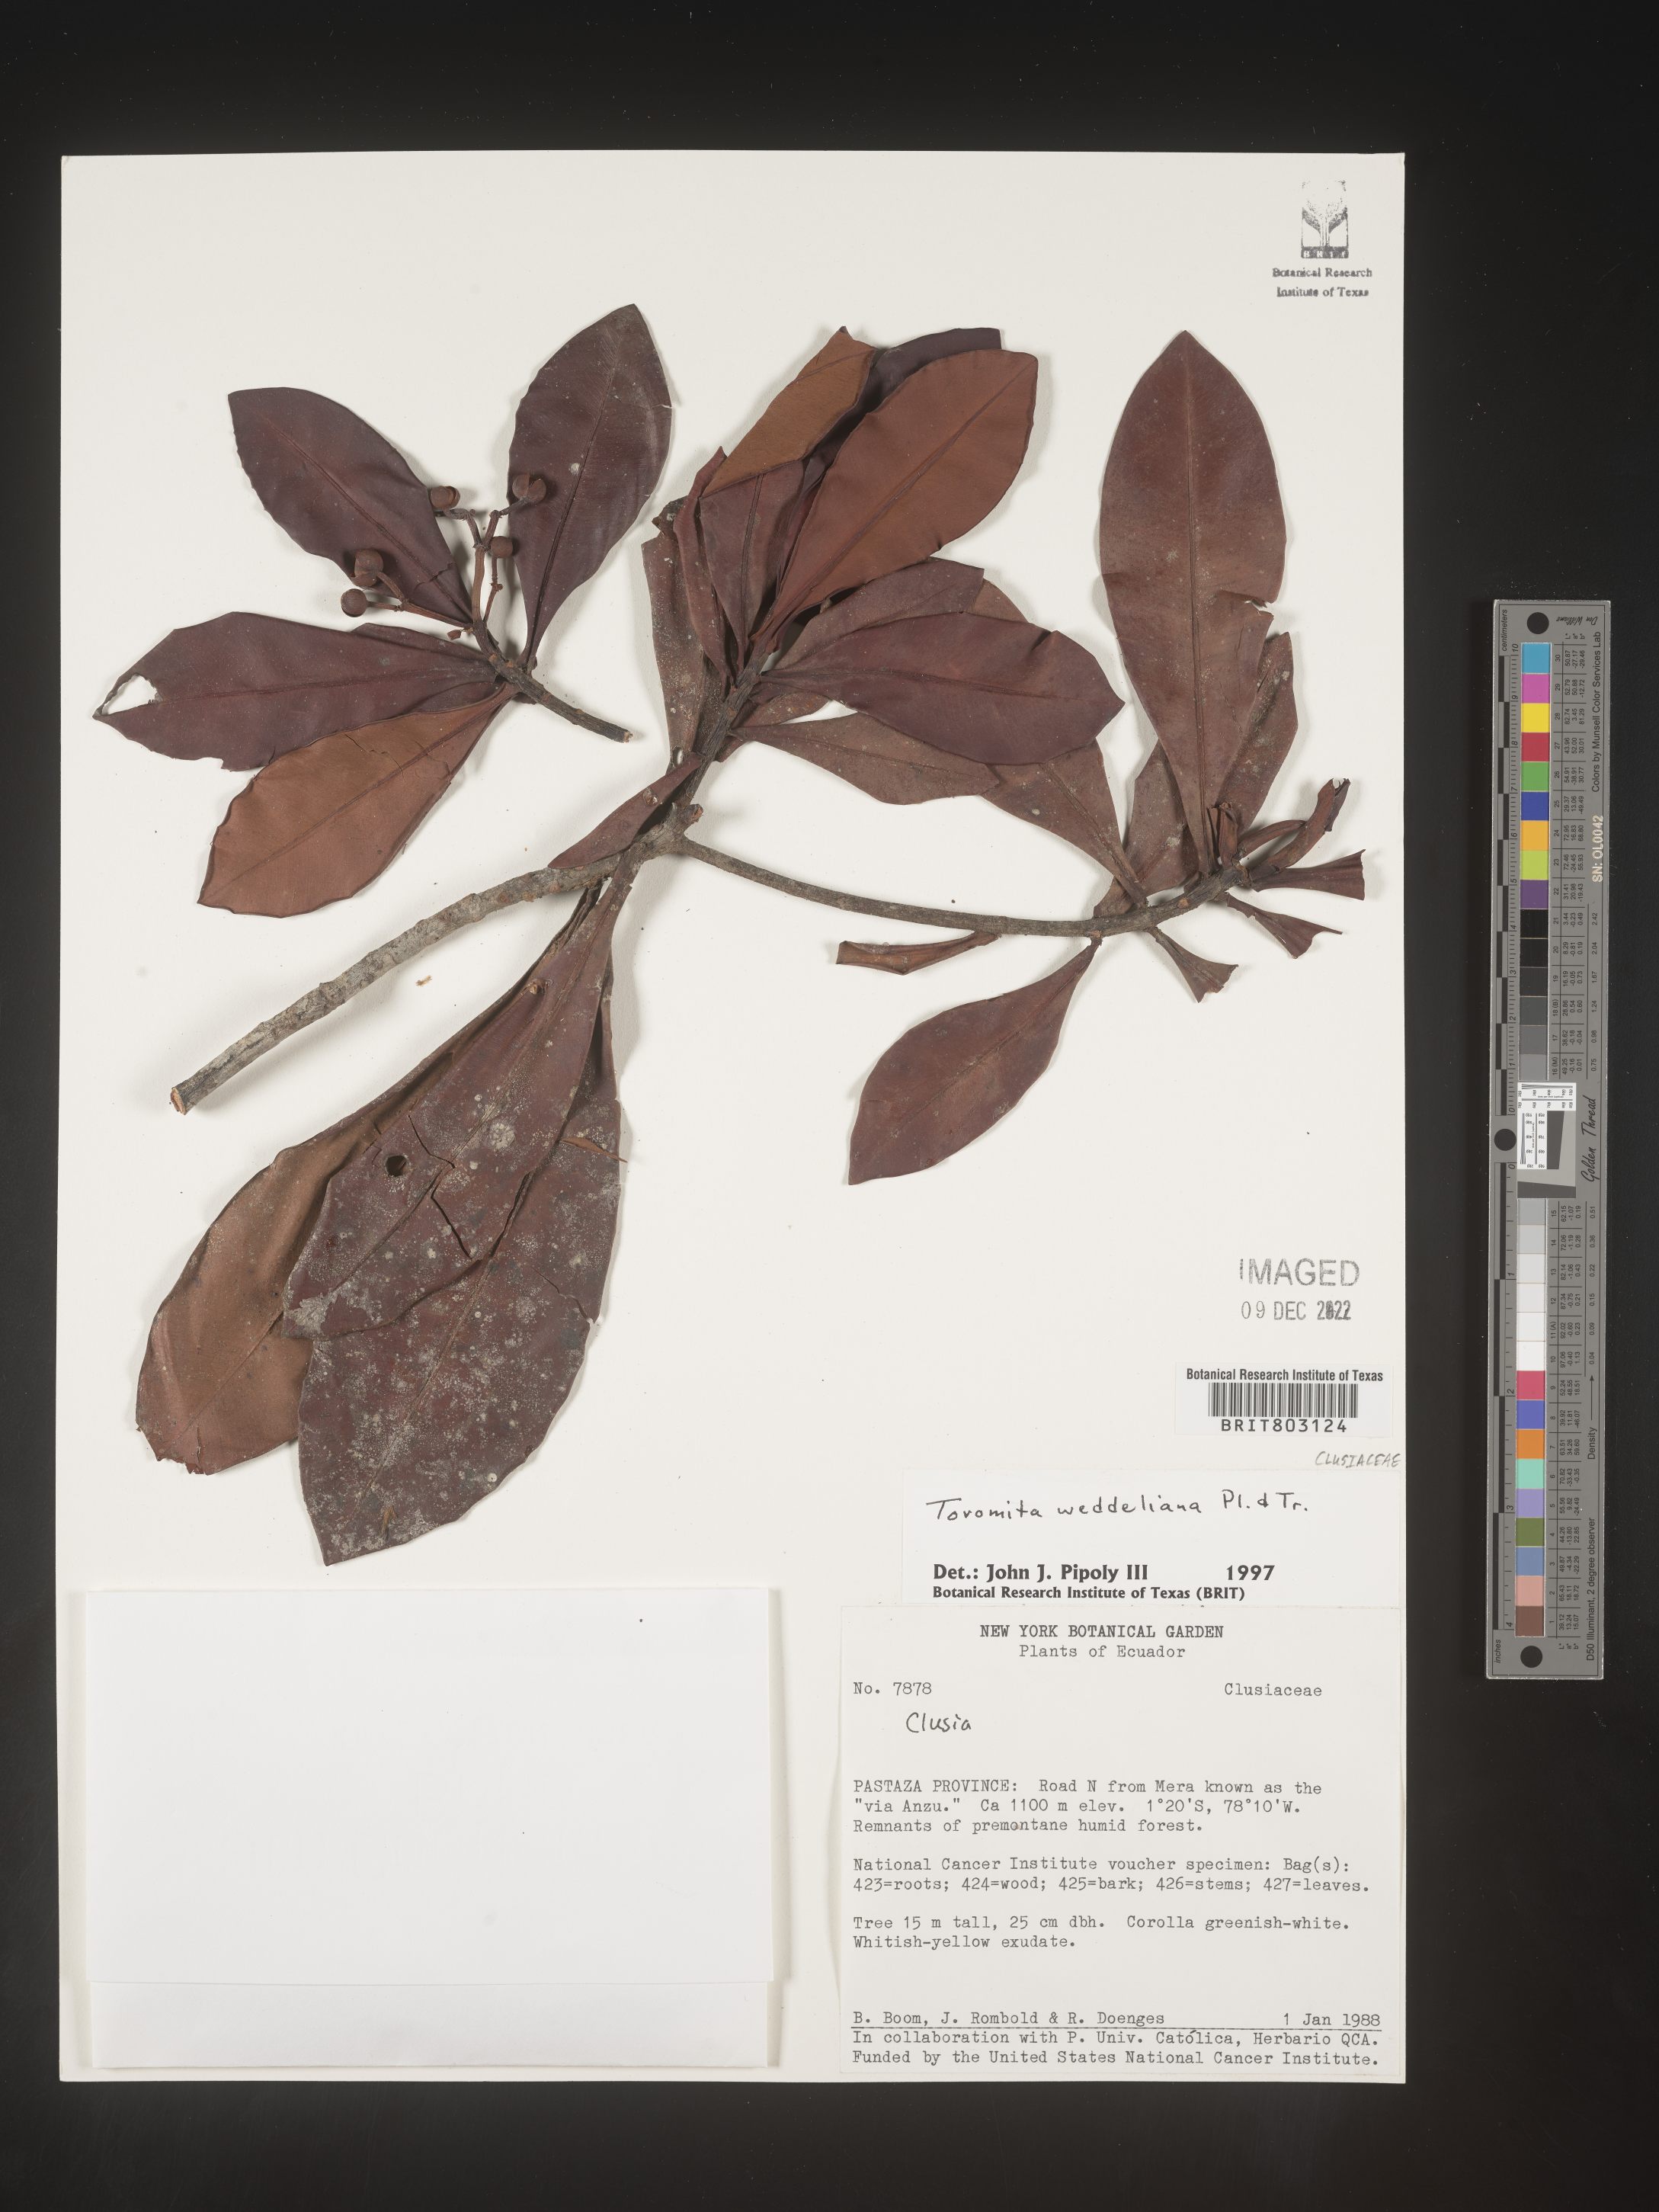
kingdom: Plantae
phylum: Tracheophyta
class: Magnoliopsida
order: Malpighiales
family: Clusiaceae
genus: Arawakia
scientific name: Arawakia weddelliana
